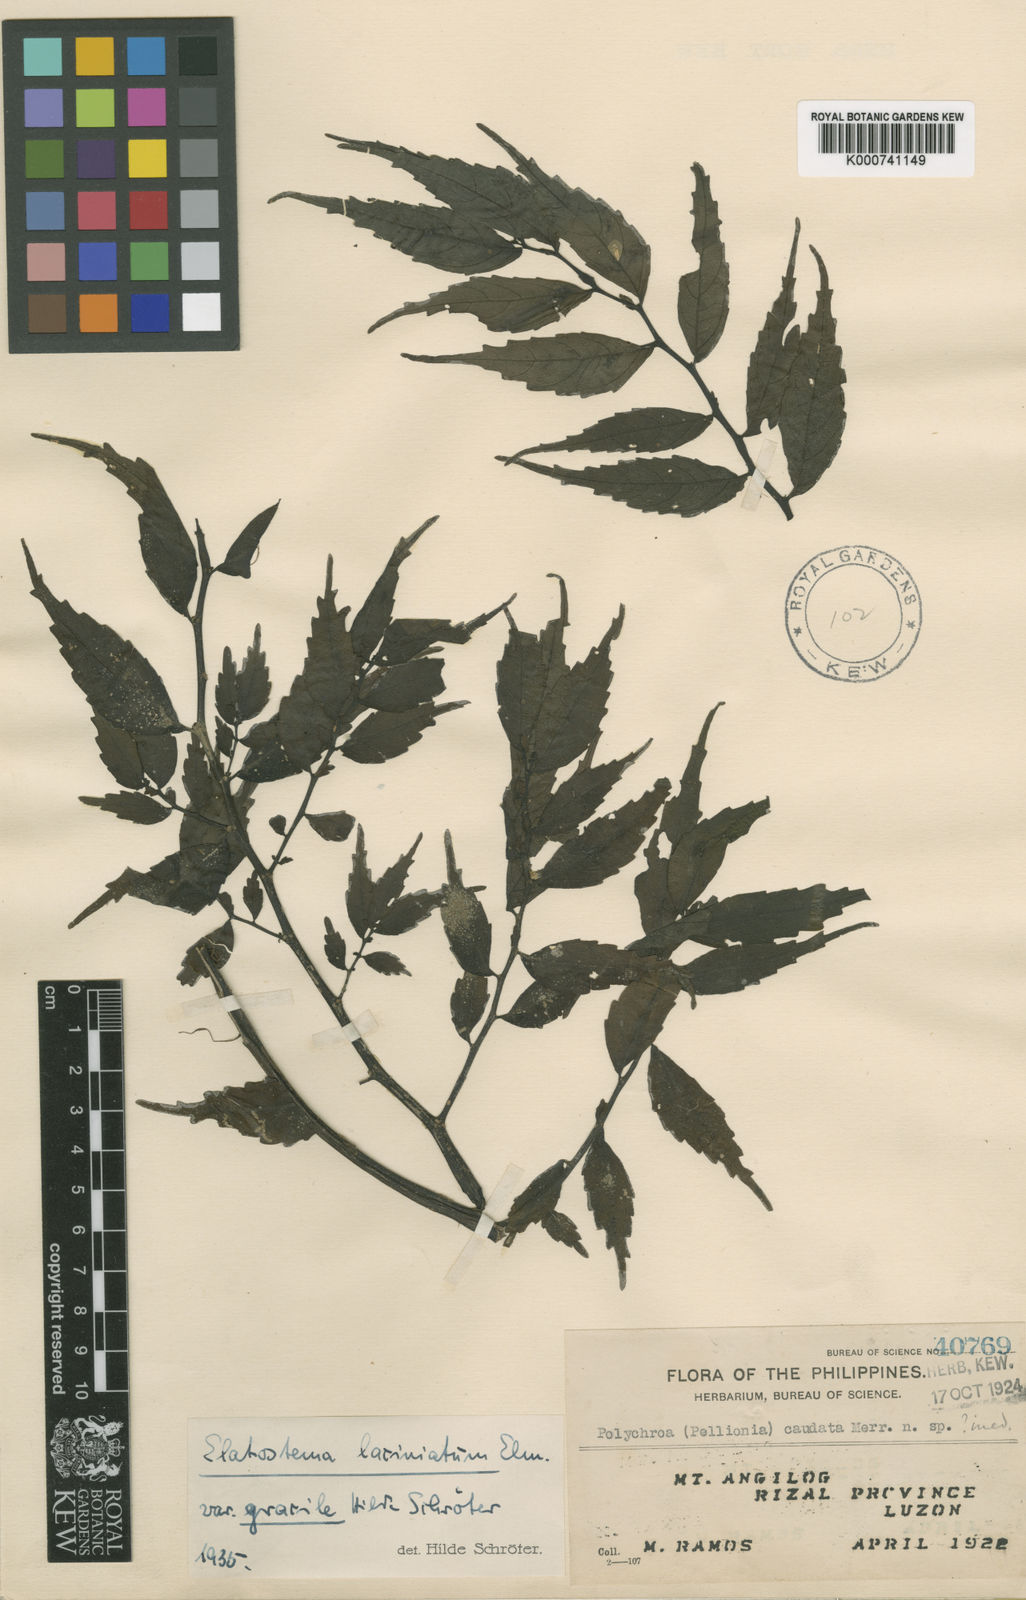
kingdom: Plantae
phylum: Tracheophyta
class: Magnoliopsida
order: Rosales
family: Urticaceae
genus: Elatostema
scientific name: Elatostema sinuatum
